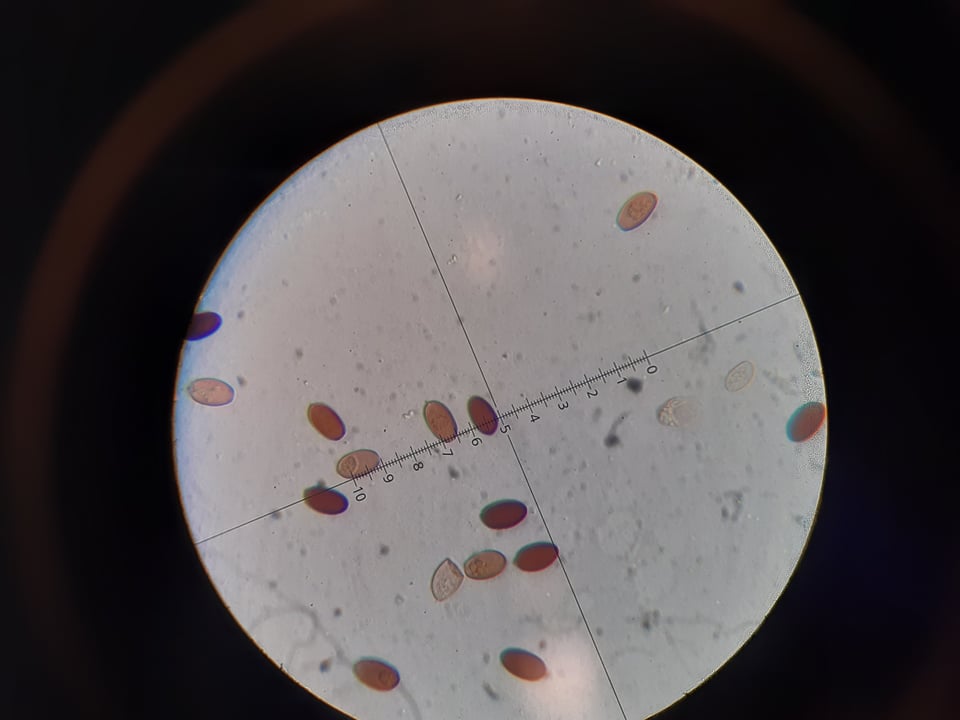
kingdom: Fungi
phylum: Basidiomycota
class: Agaricomycetes
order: Agaricales
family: Psathyrellaceae
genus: Parasola
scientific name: Parasola conopilea
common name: kegle-hjulhat
